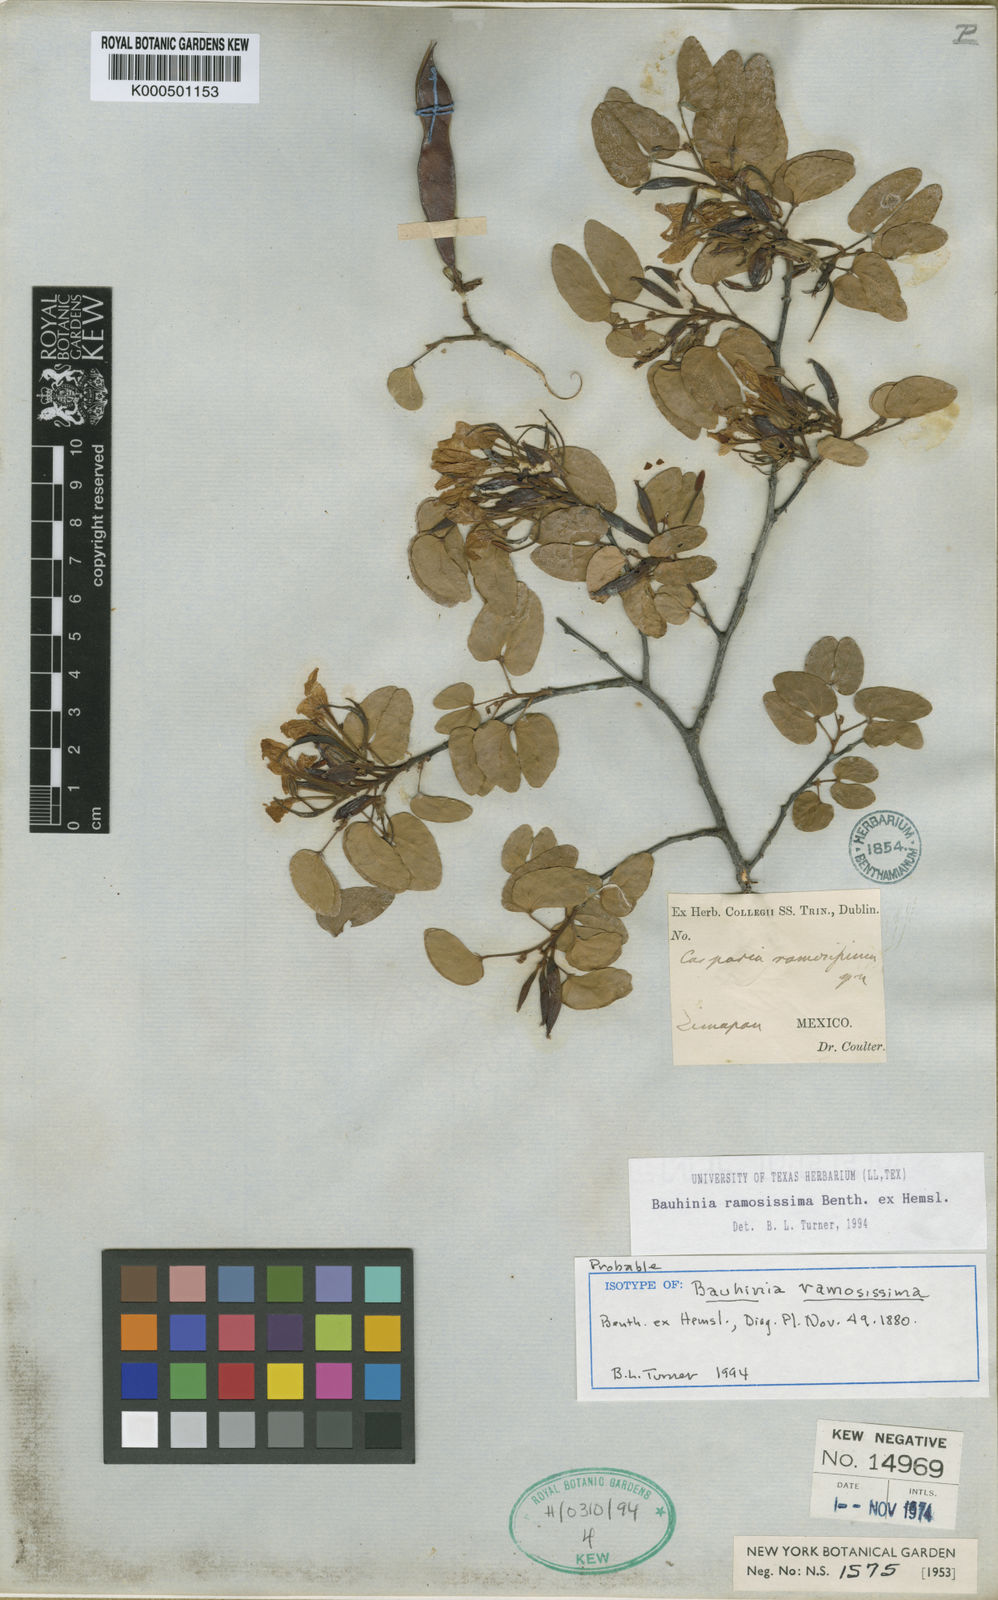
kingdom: Plantae
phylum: Tracheophyta
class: Magnoliopsida
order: Fabales
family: Fabaceae
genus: Bauhinia
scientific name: Bauhinia ramosissima
